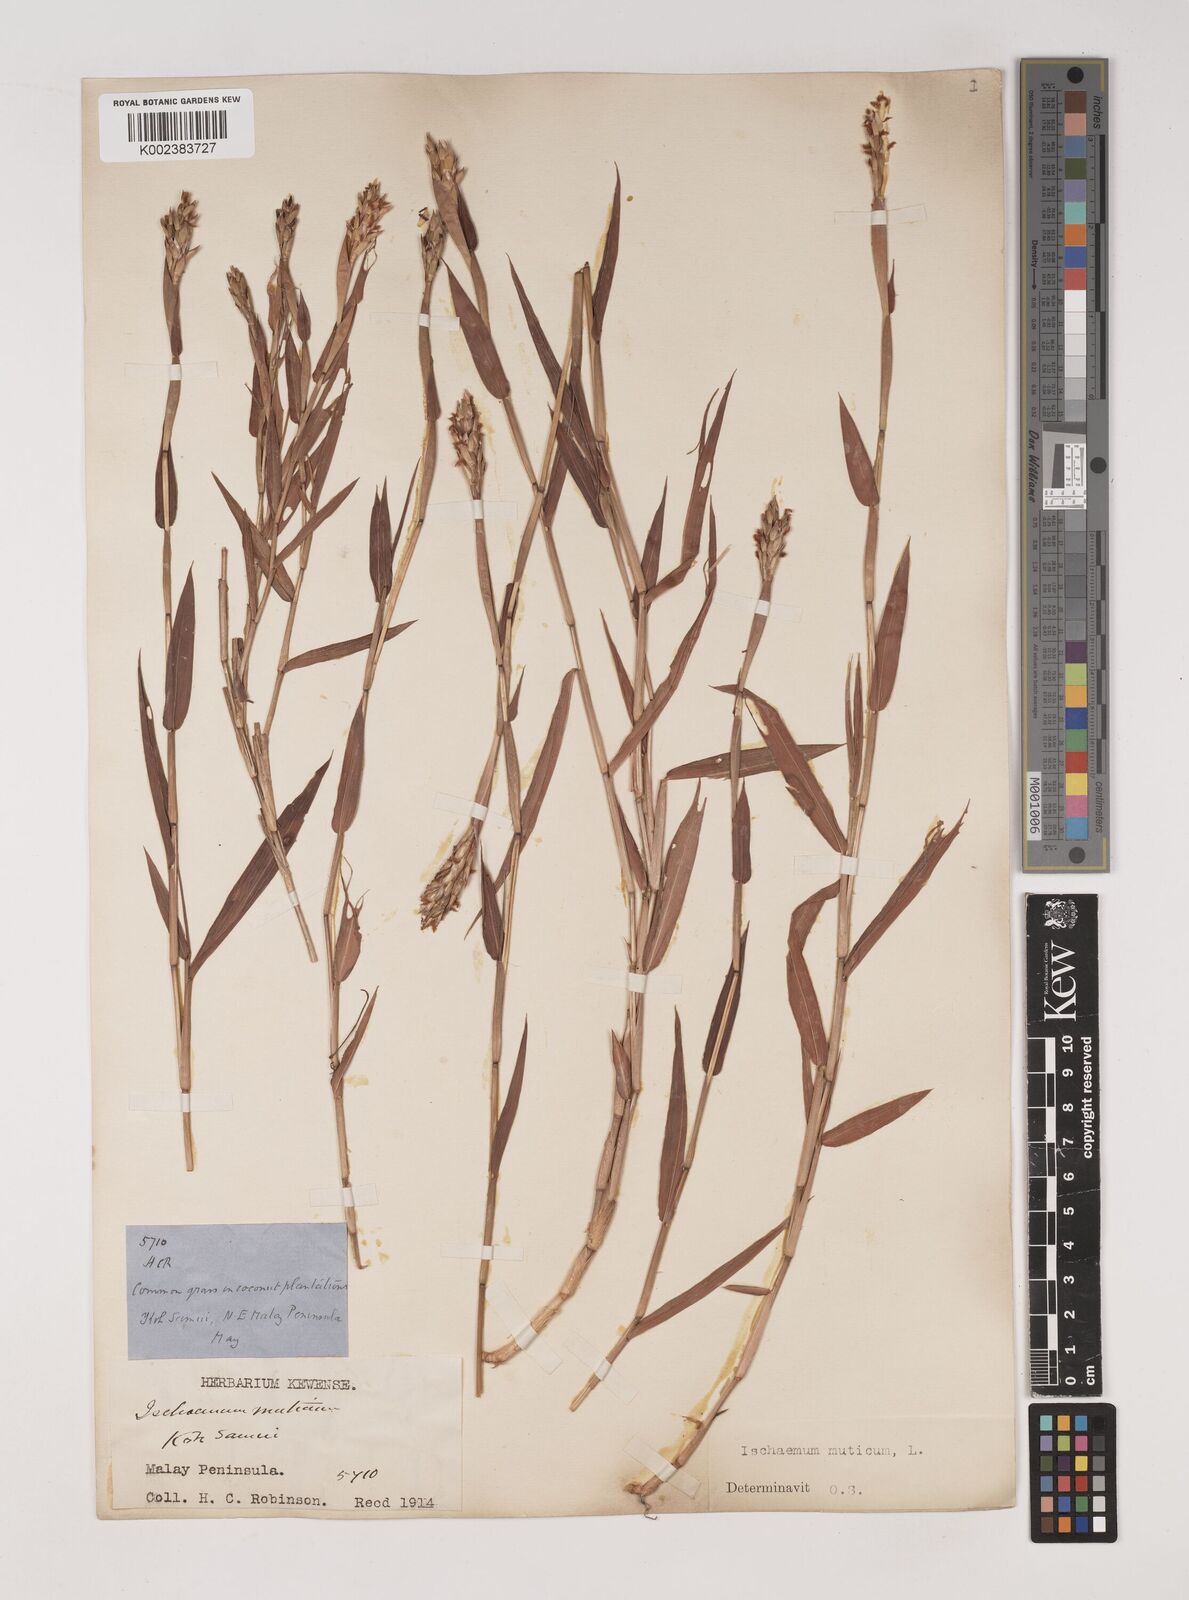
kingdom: Plantae
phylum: Tracheophyta
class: Liliopsida
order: Poales
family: Poaceae
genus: Ischaemum
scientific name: Ischaemum muticum
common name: Drought grass
